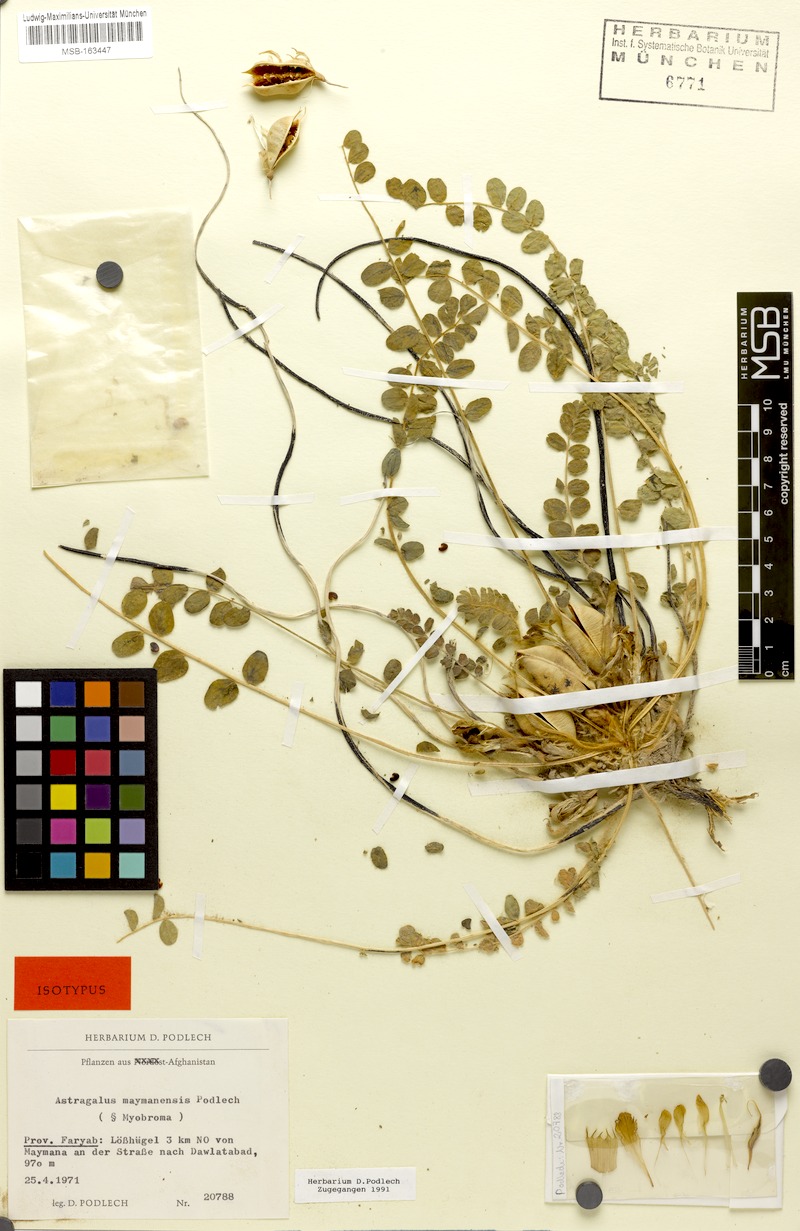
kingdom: Plantae
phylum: Tracheophyta
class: Magnoliopsida
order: Fabales
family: Fabaceae
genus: Astragalus
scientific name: Astragalus nephtonensis
